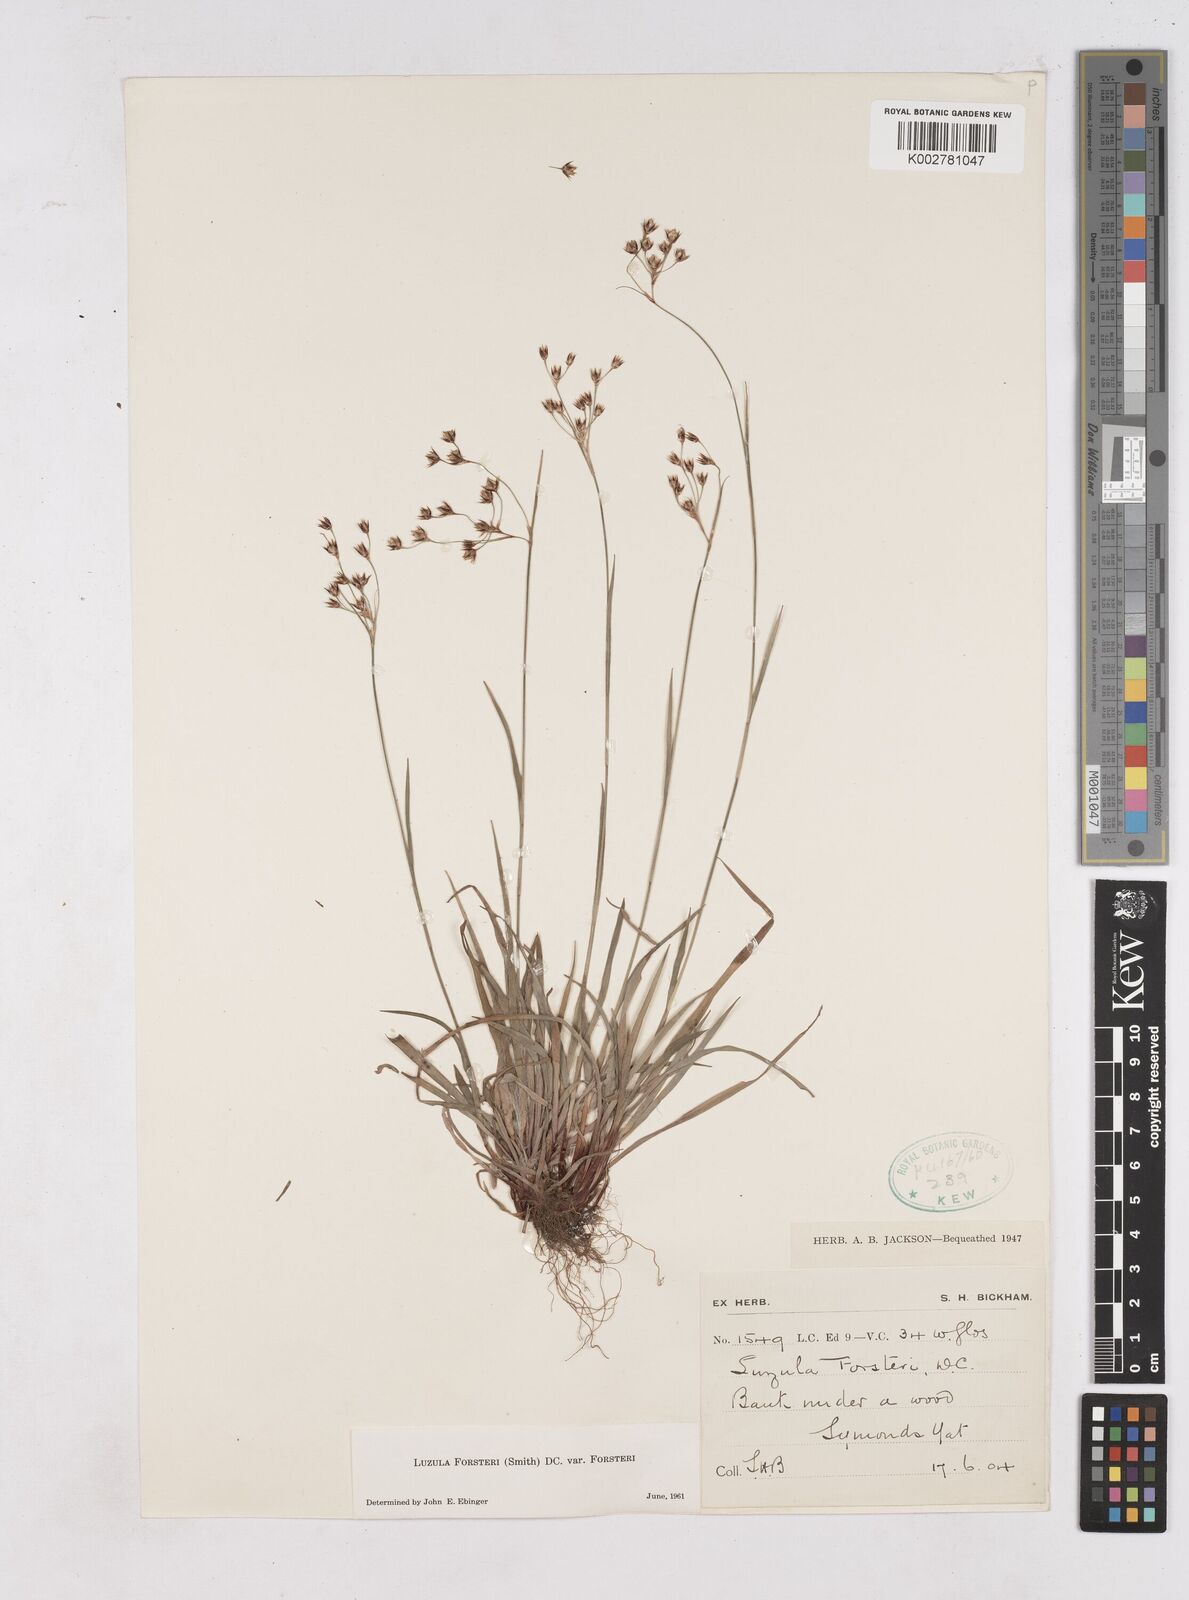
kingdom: Plantae
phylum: Tracheophyta
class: Liliopsida
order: Poales
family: Juncaceae
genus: Luzula
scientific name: Luzula forsteri
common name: Southern wood-rush
